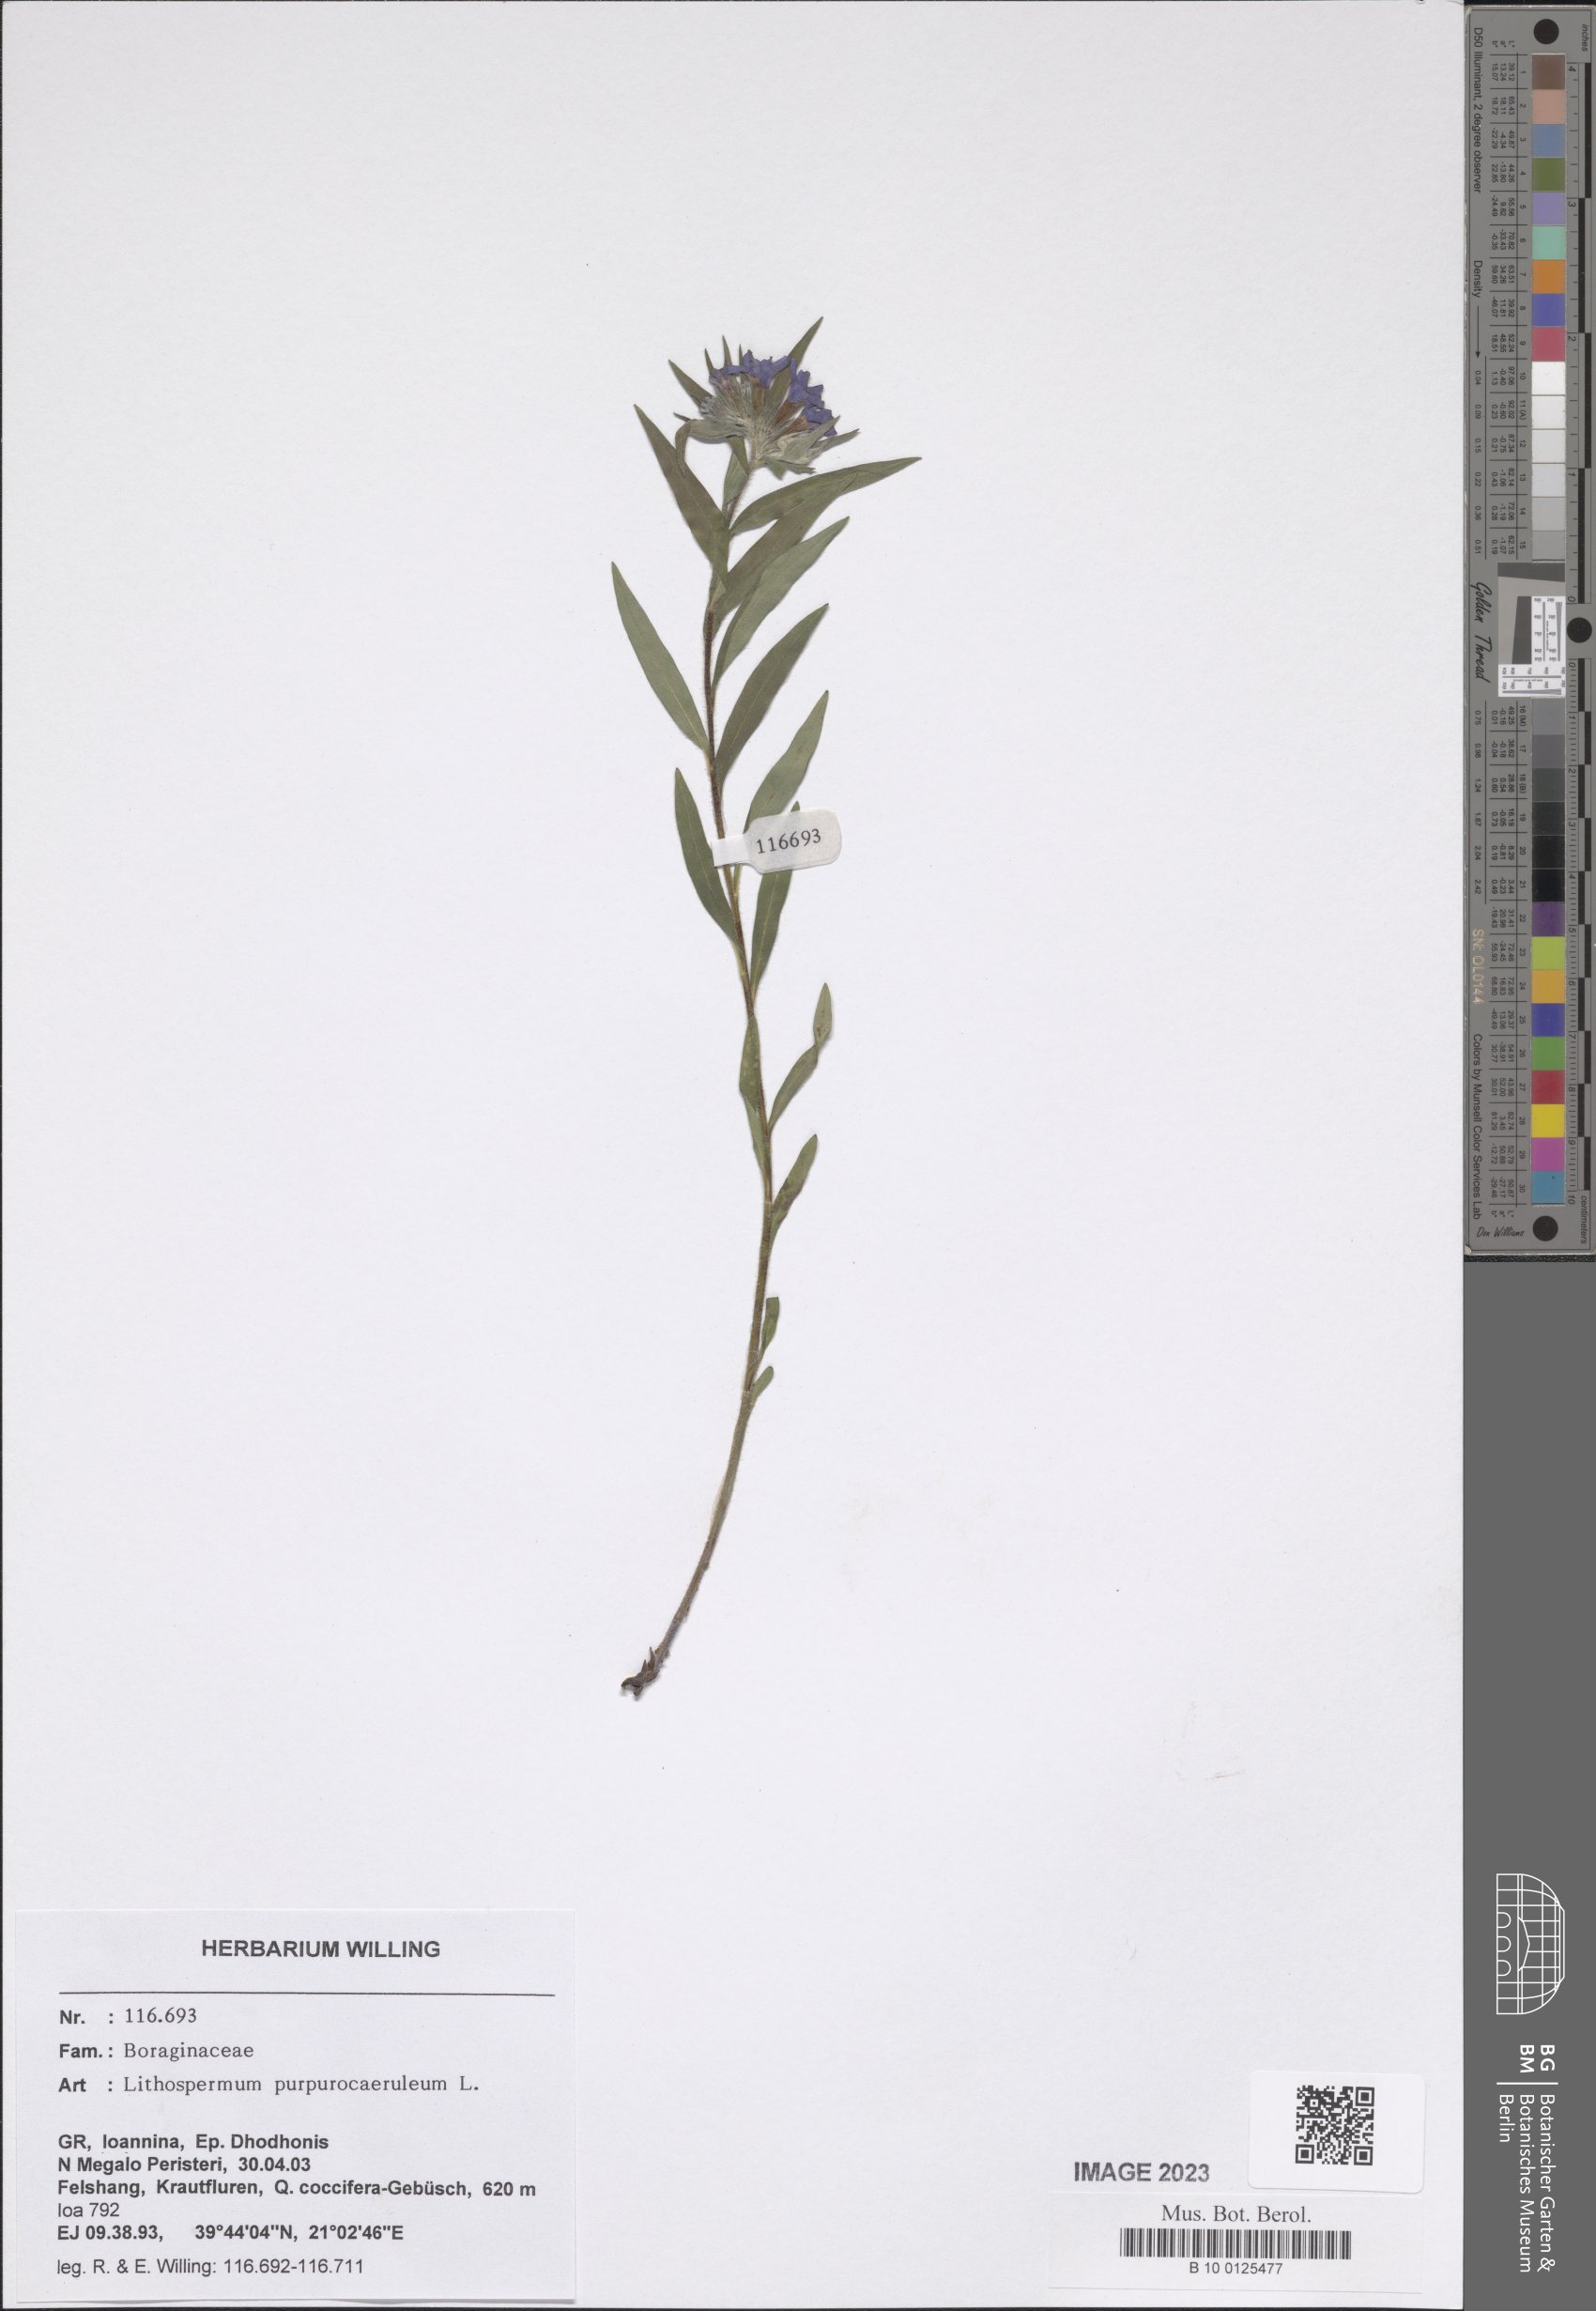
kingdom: Plantae
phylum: Tracheophyta
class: Magnoliopsida
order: Boraginales
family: Boraginaceae
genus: Aegonychon
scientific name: Aegonychon purpurocaeruleum
